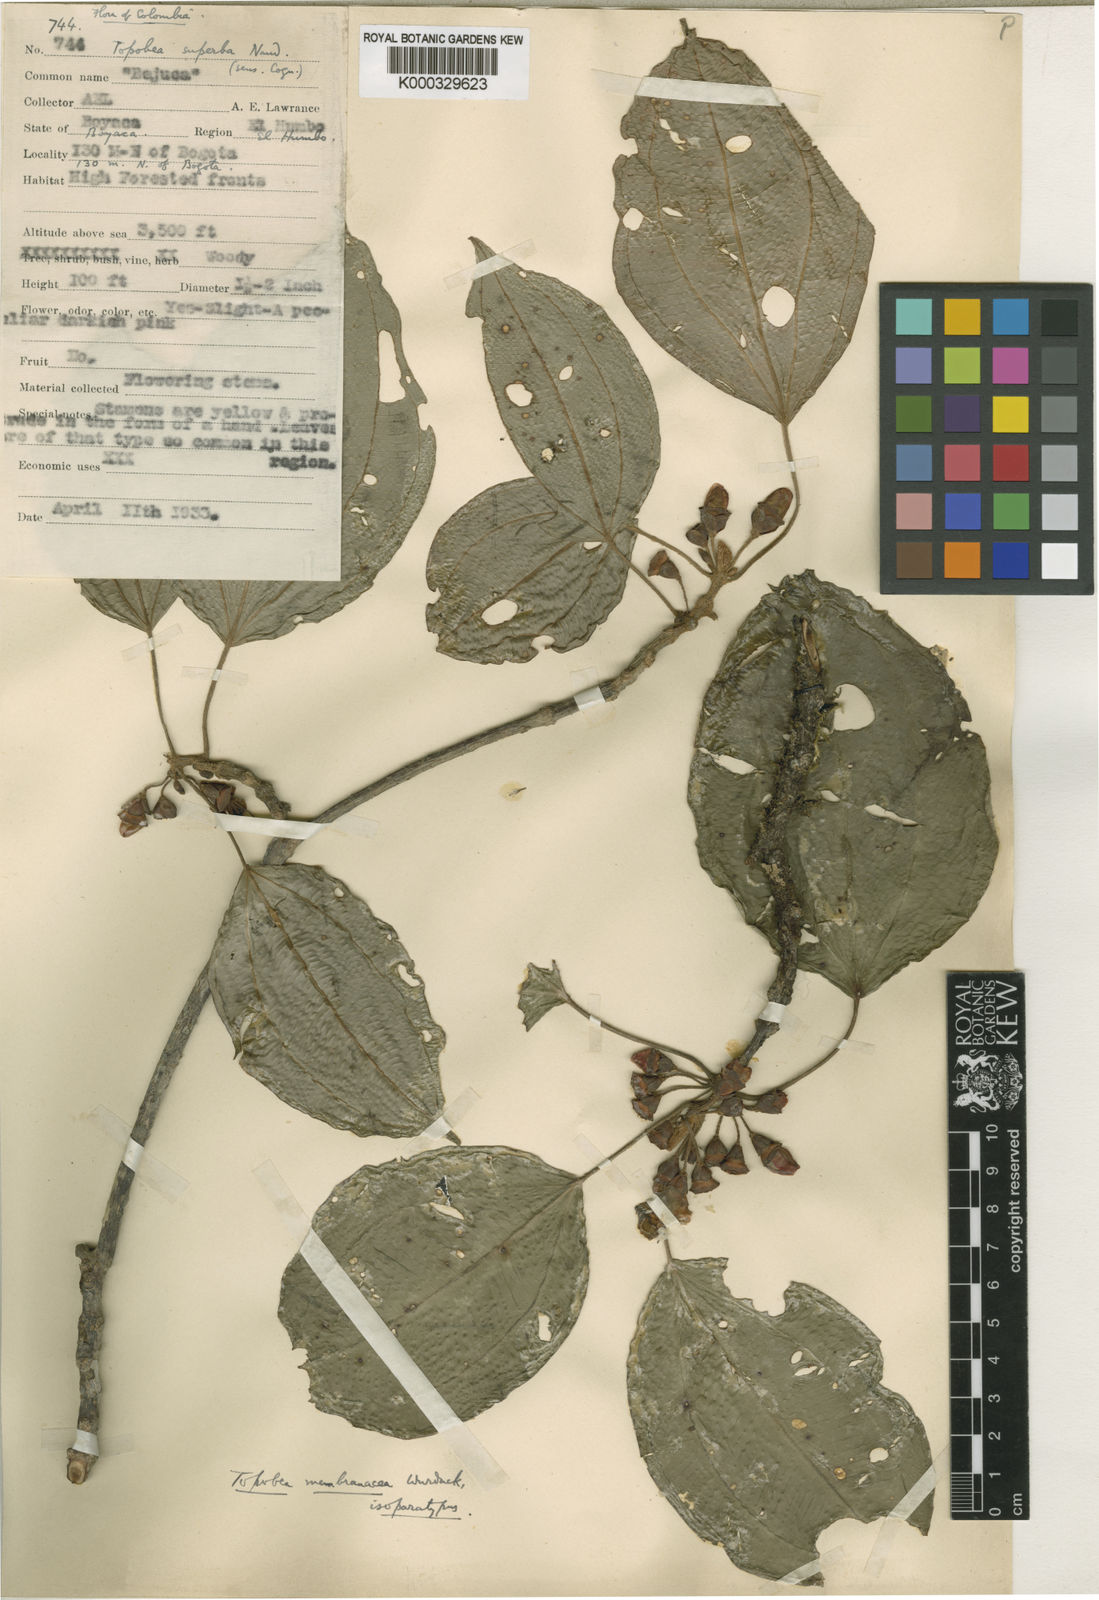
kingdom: Plantae
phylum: Tracheophyta
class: Magnoliopsida
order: Myrtales
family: Melastomataceae
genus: Blakea
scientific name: Blakea parasitica
